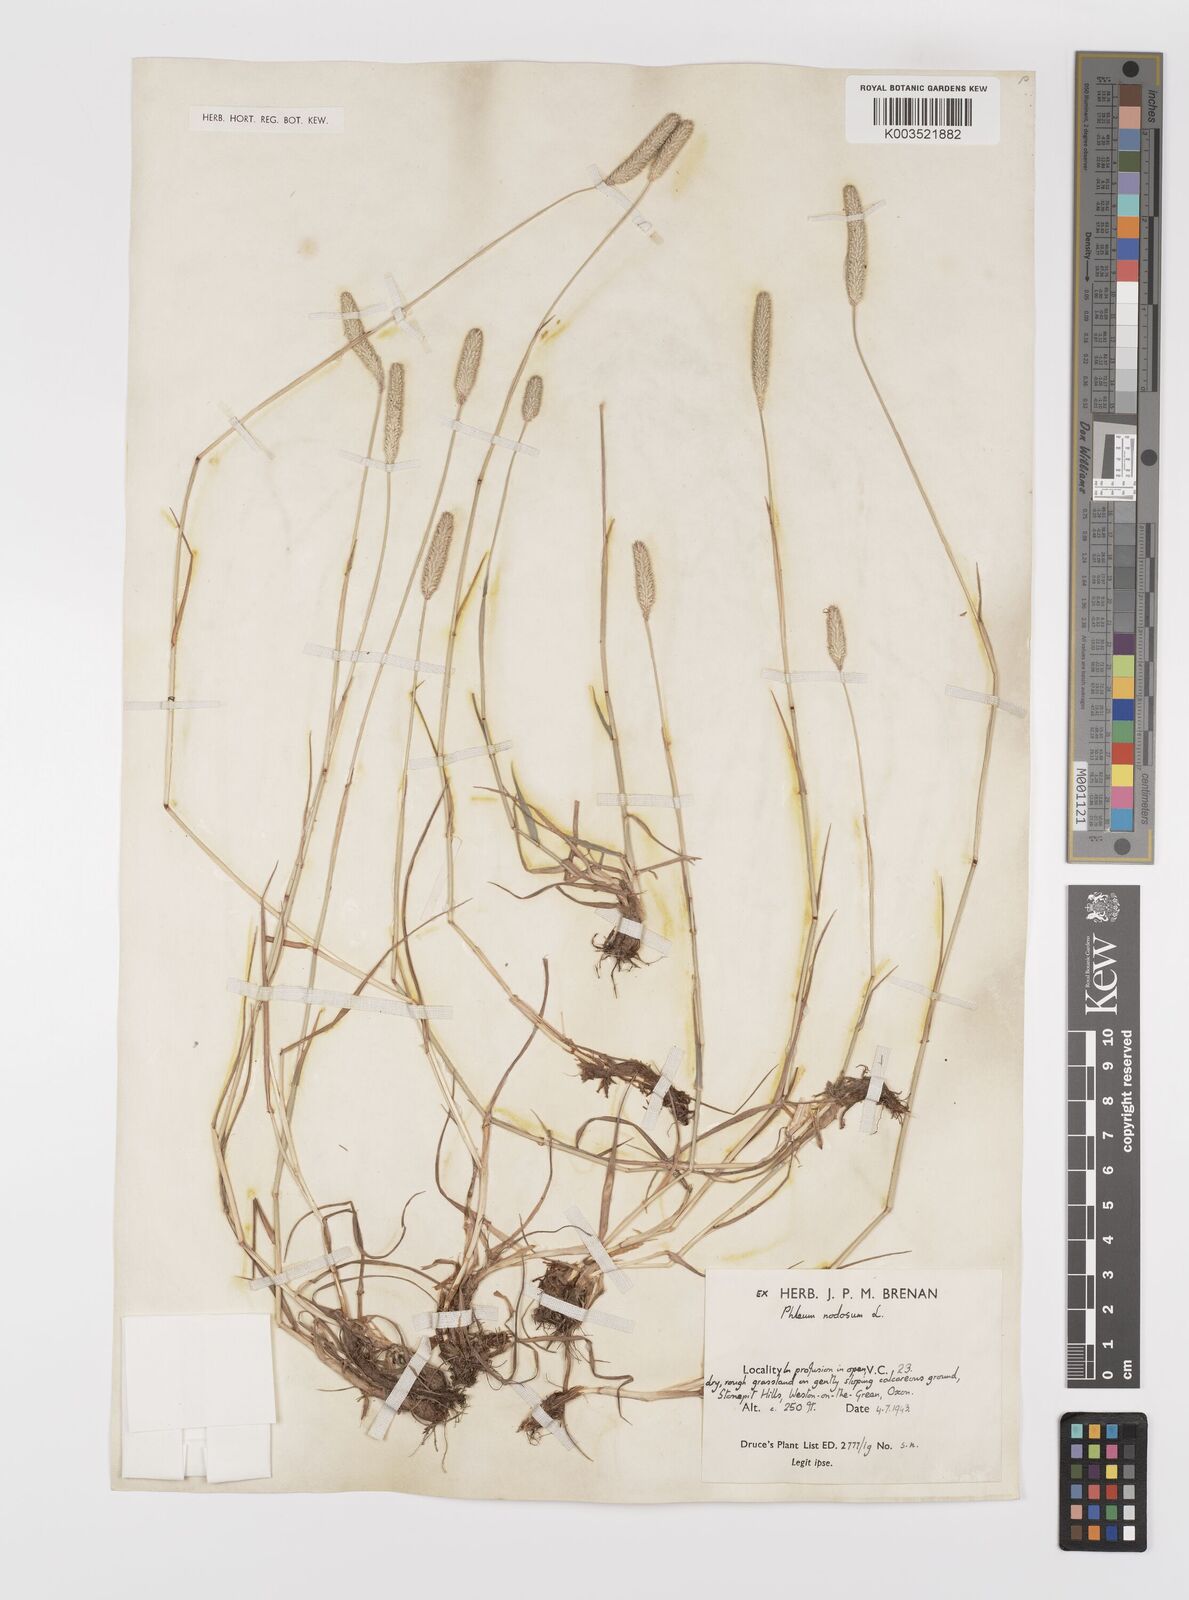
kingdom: Plantae
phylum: Tracheophyta
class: Liliopsida
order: Poales
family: Poaceae
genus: Phleum
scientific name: Phleum pratense
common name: Timothy grass
